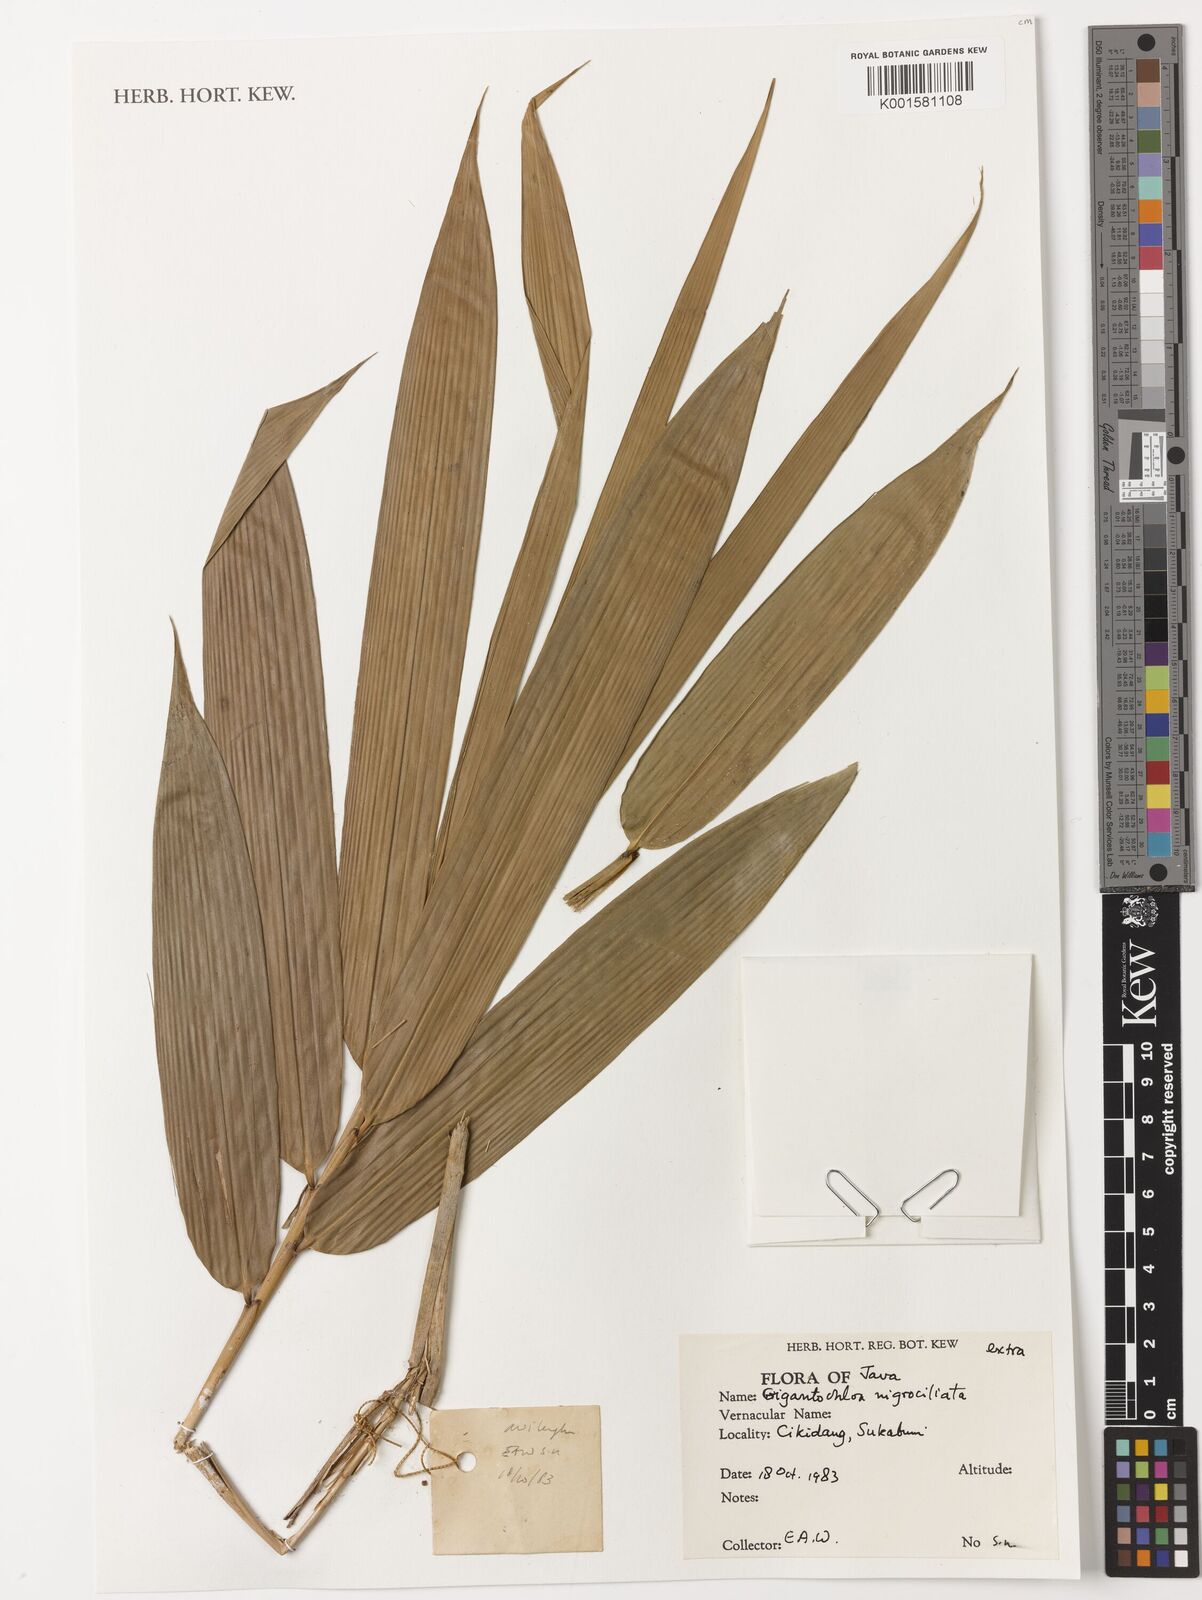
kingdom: Plantae
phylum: Tracheophyta
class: Liliopsida
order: Poales
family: Poaceae
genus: Gigantochloa
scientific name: Gigantochloa nigrociliata
